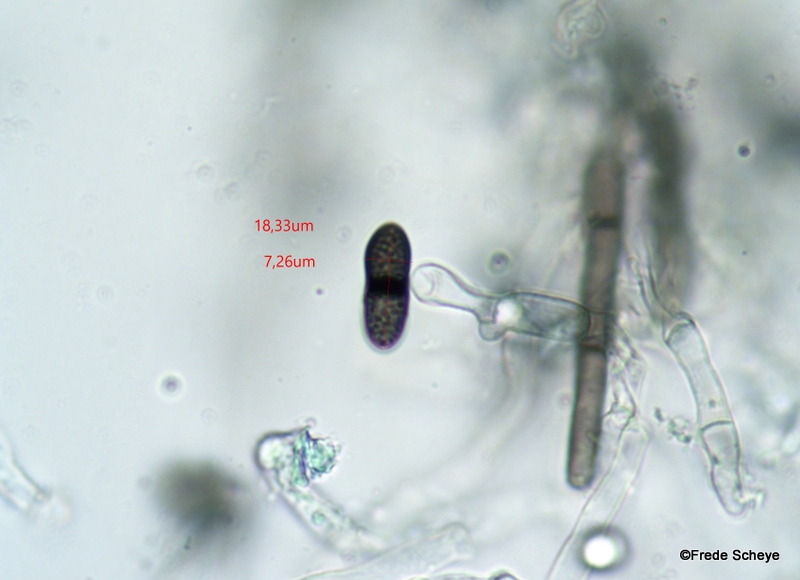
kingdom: Fungi
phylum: Ascomycota
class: Sordariomycetes
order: Sordariales
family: Helminthosphaeriaceae
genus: Helminthosphaeria
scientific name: Helminthosphaeria clavariarum
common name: trold-svampesnyltekerne
